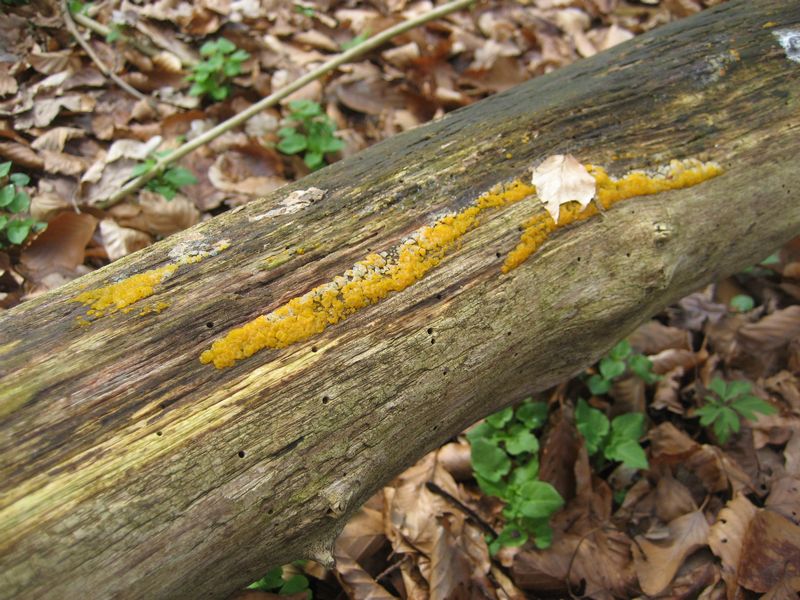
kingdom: Fungi
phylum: Basidiomycota
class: Dacrymycetes
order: Dacrymycetales
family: Dacrymycetaceae
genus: Dacrymyces
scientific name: Dacrymyces lacrymalis
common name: rynket tåresvamp
